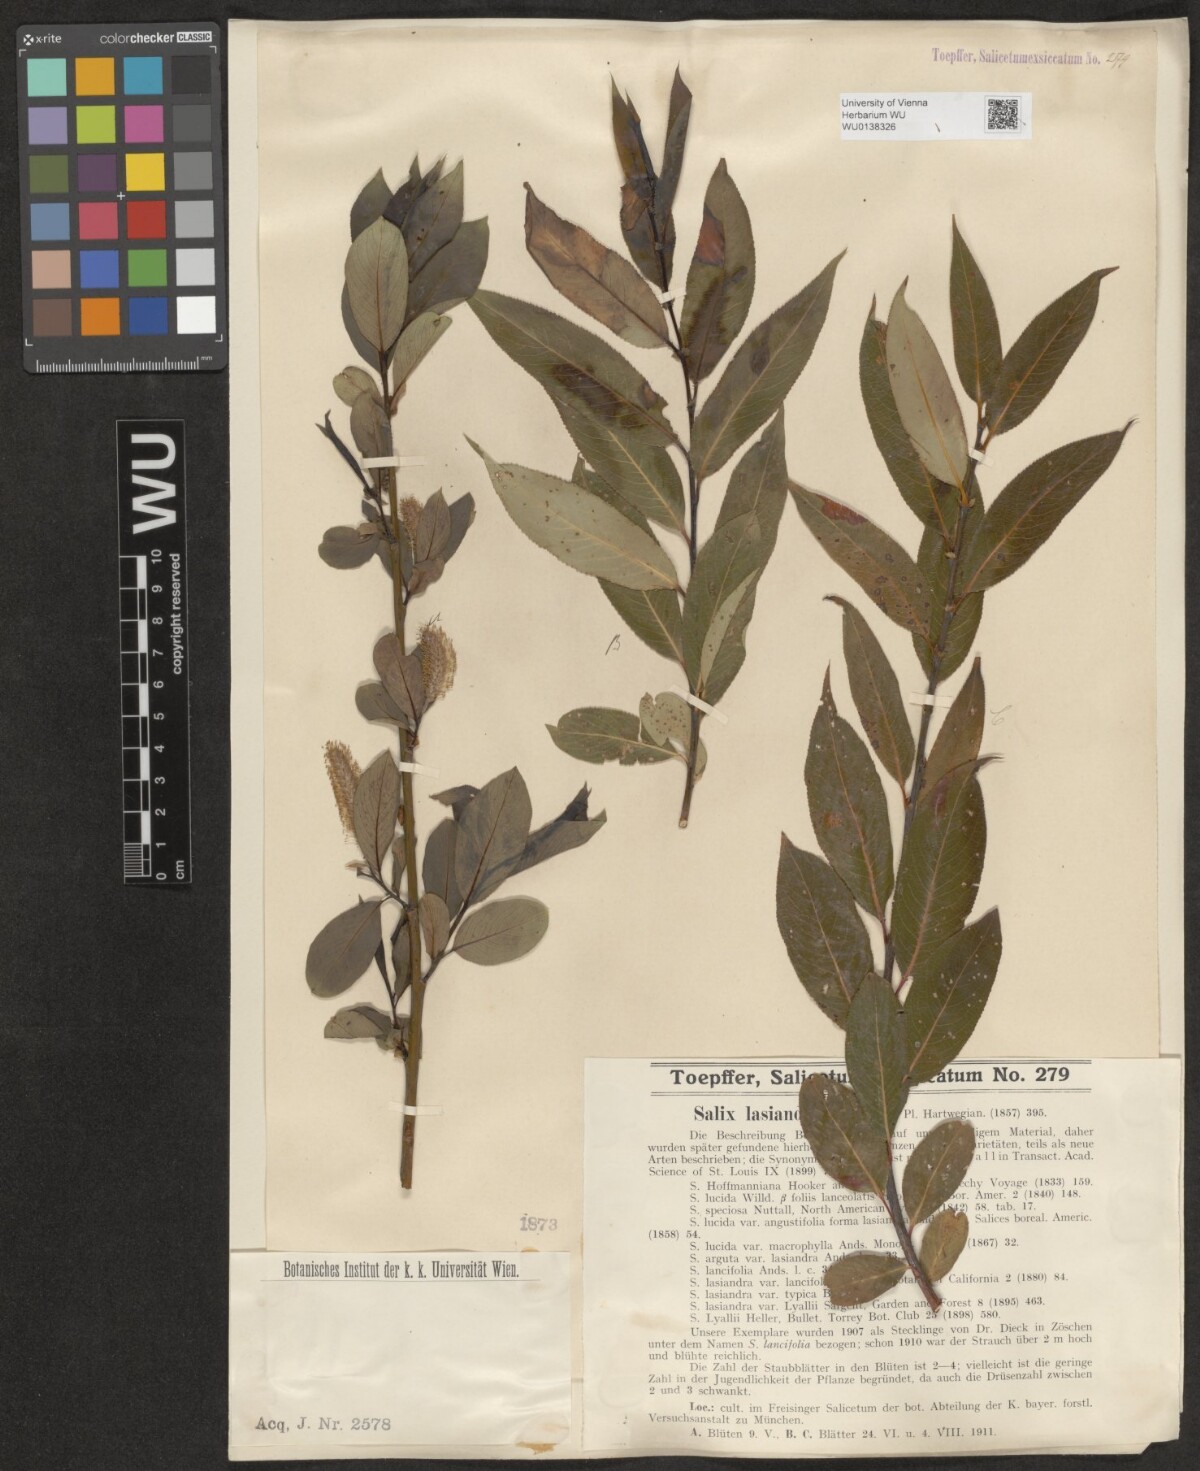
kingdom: Plantae
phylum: Tracheophyta
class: Magnoliopsida
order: Malpighiales
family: Salicaceae
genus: Salix
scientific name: Salix lucida
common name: Shining willow
